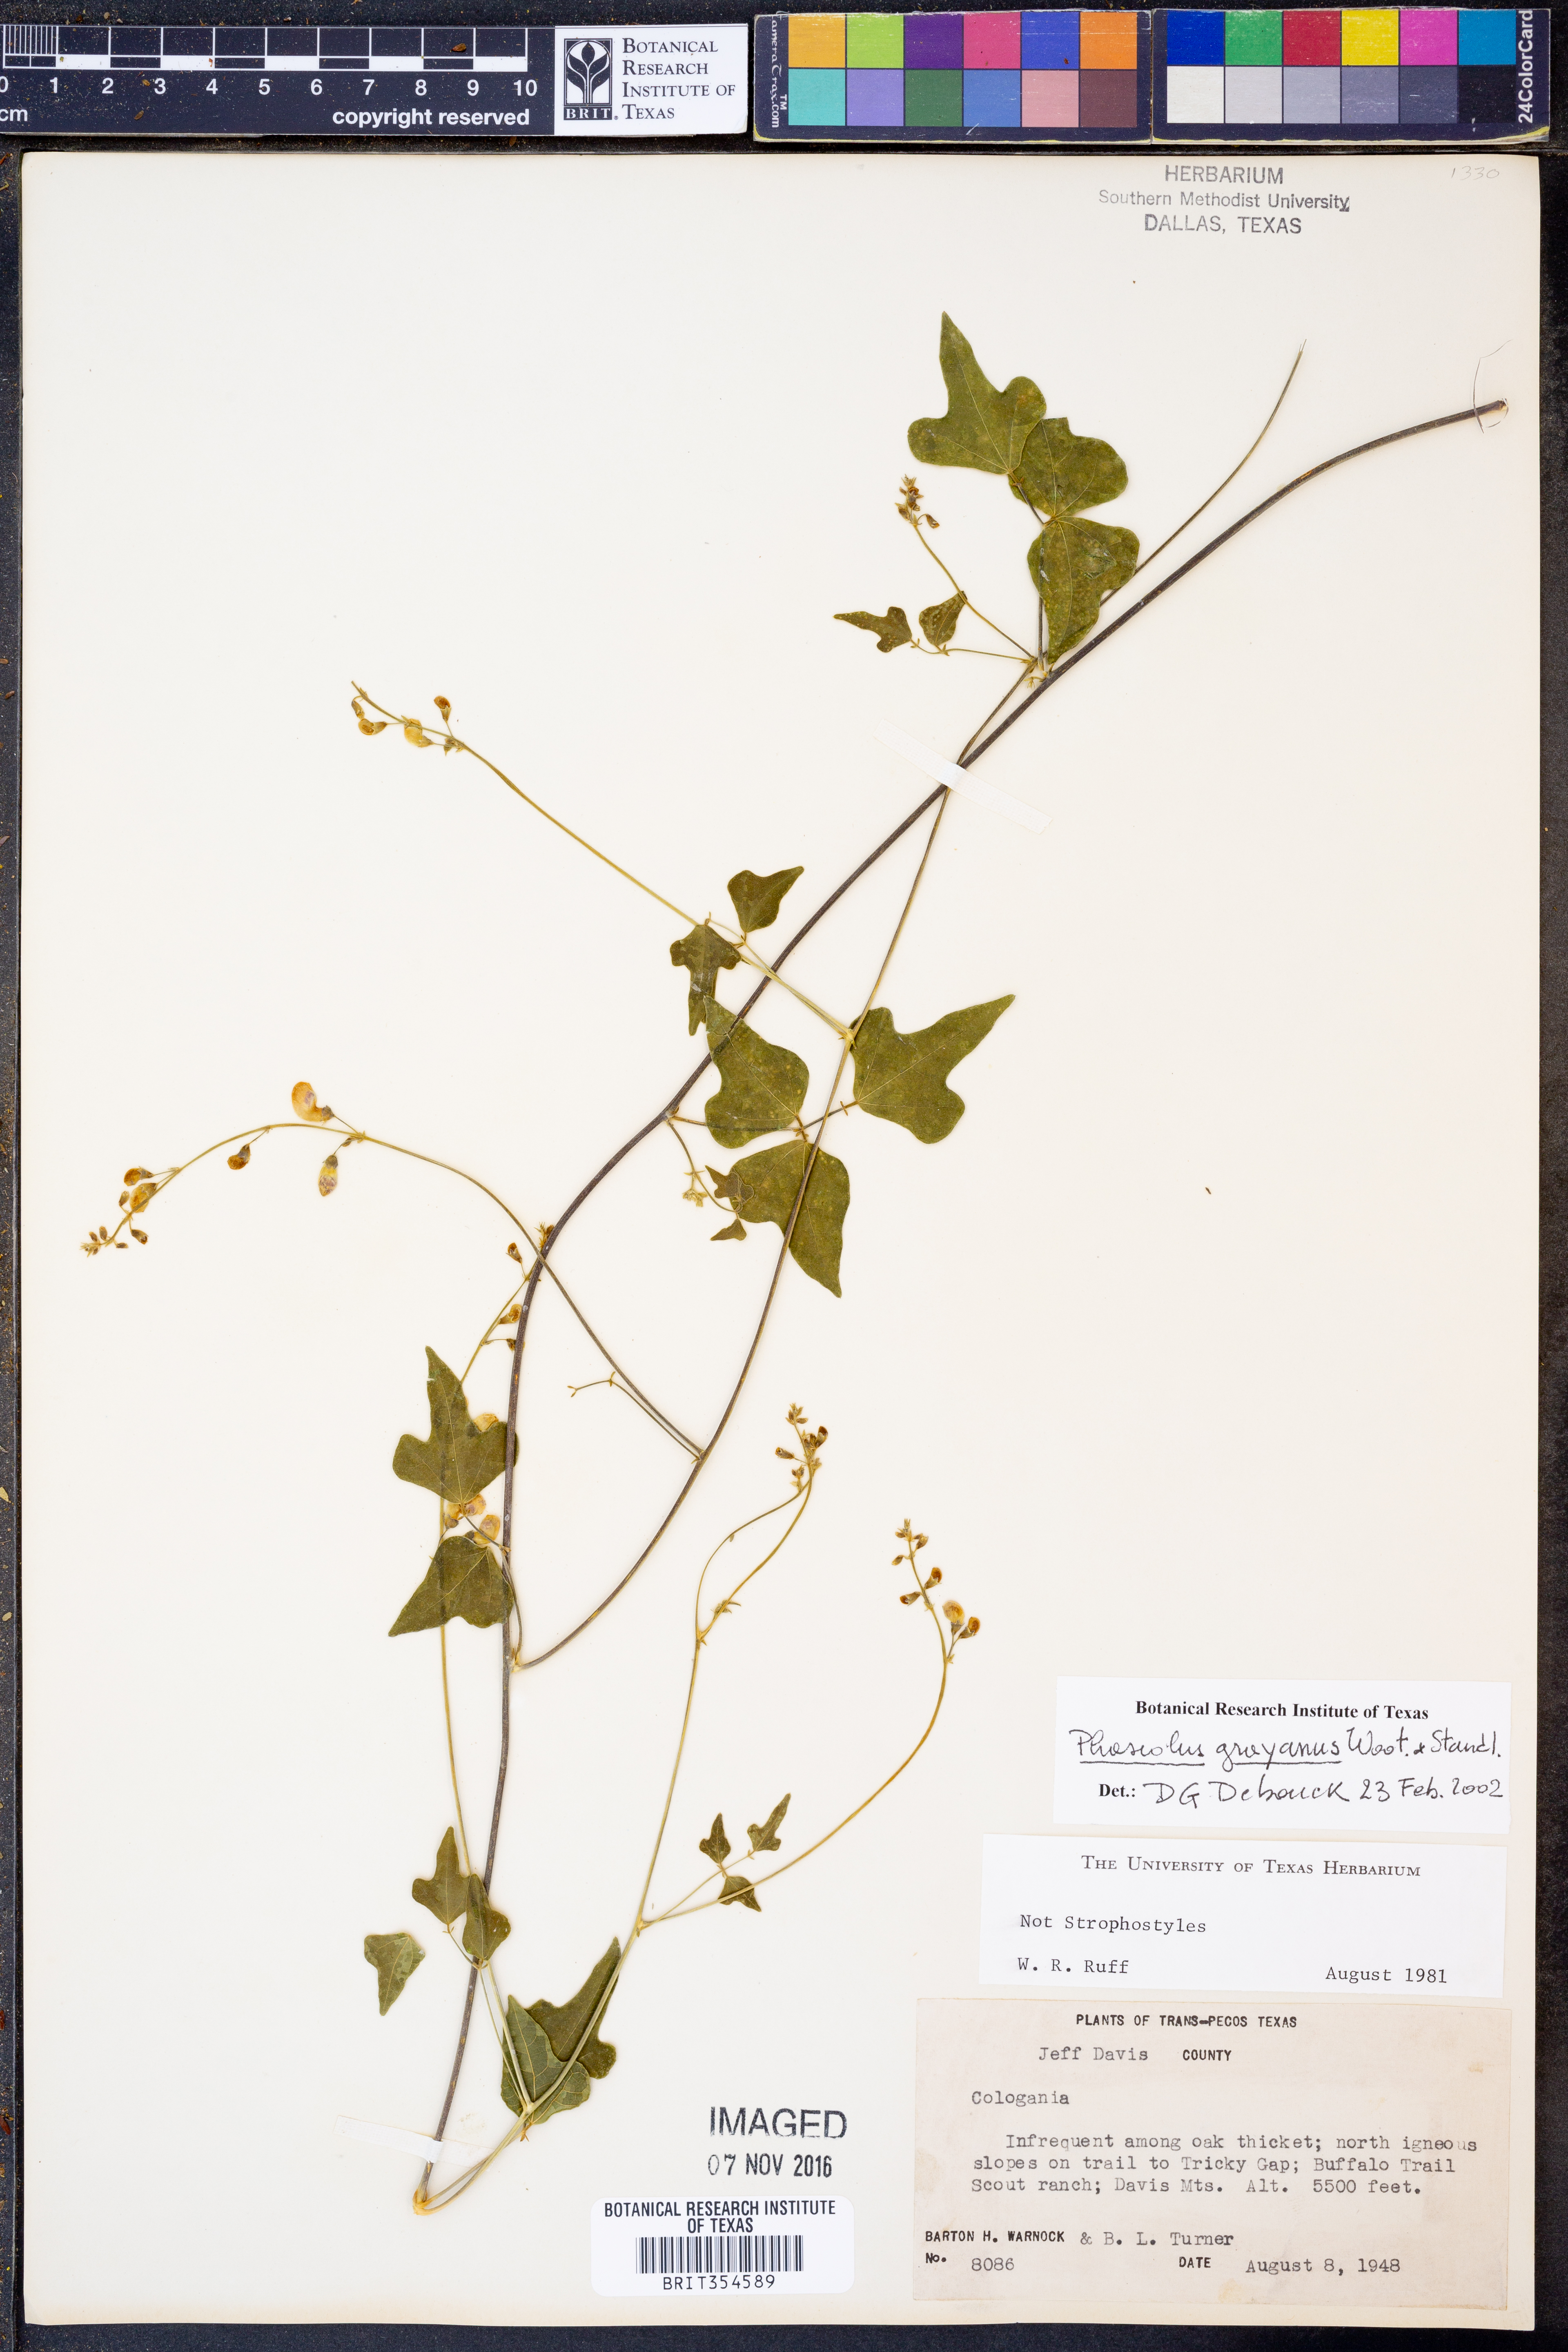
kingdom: Plantae
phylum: Tracheophyta
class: Magnoliopsida
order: Fabales
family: Fabaceae
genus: Phaseolus
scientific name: Phaseolus pedicellatus
